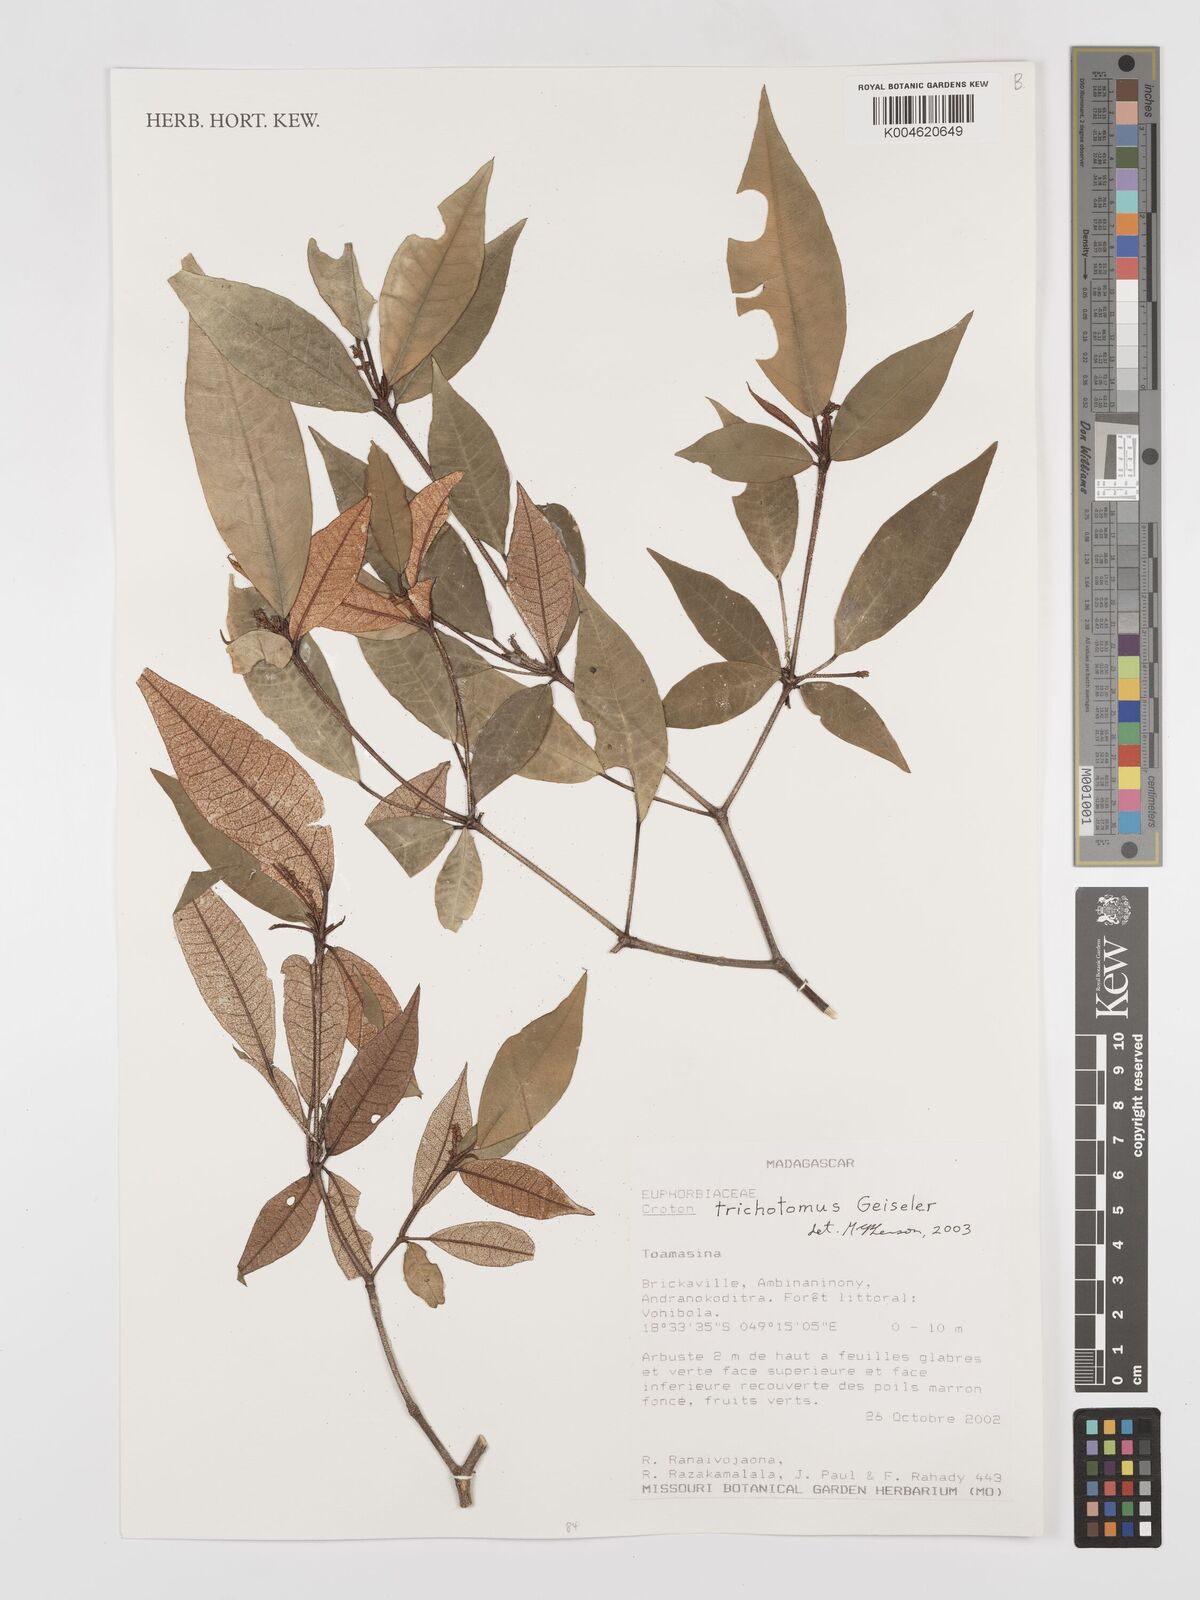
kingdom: Plantae
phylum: Tracheophyta
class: Magnoliopsida
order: Malpighiales
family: Euphorbiaceae
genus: Croton
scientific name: Croton trichotomus
